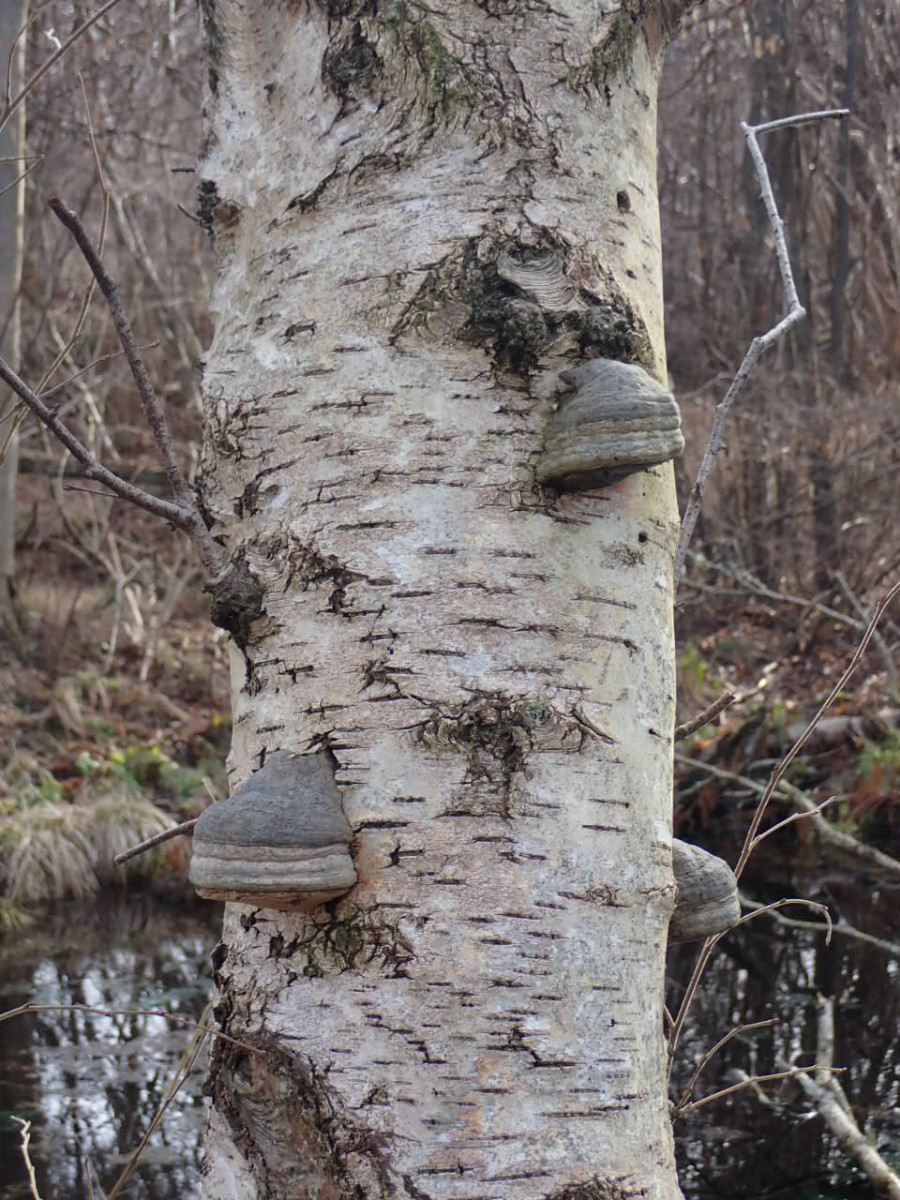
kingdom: Fungi
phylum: Basidiomycota
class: Agaricomycetes
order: Polyporales
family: Polyporaceae
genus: Fomes
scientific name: Fomes fomentarius
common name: tøndersvamp
